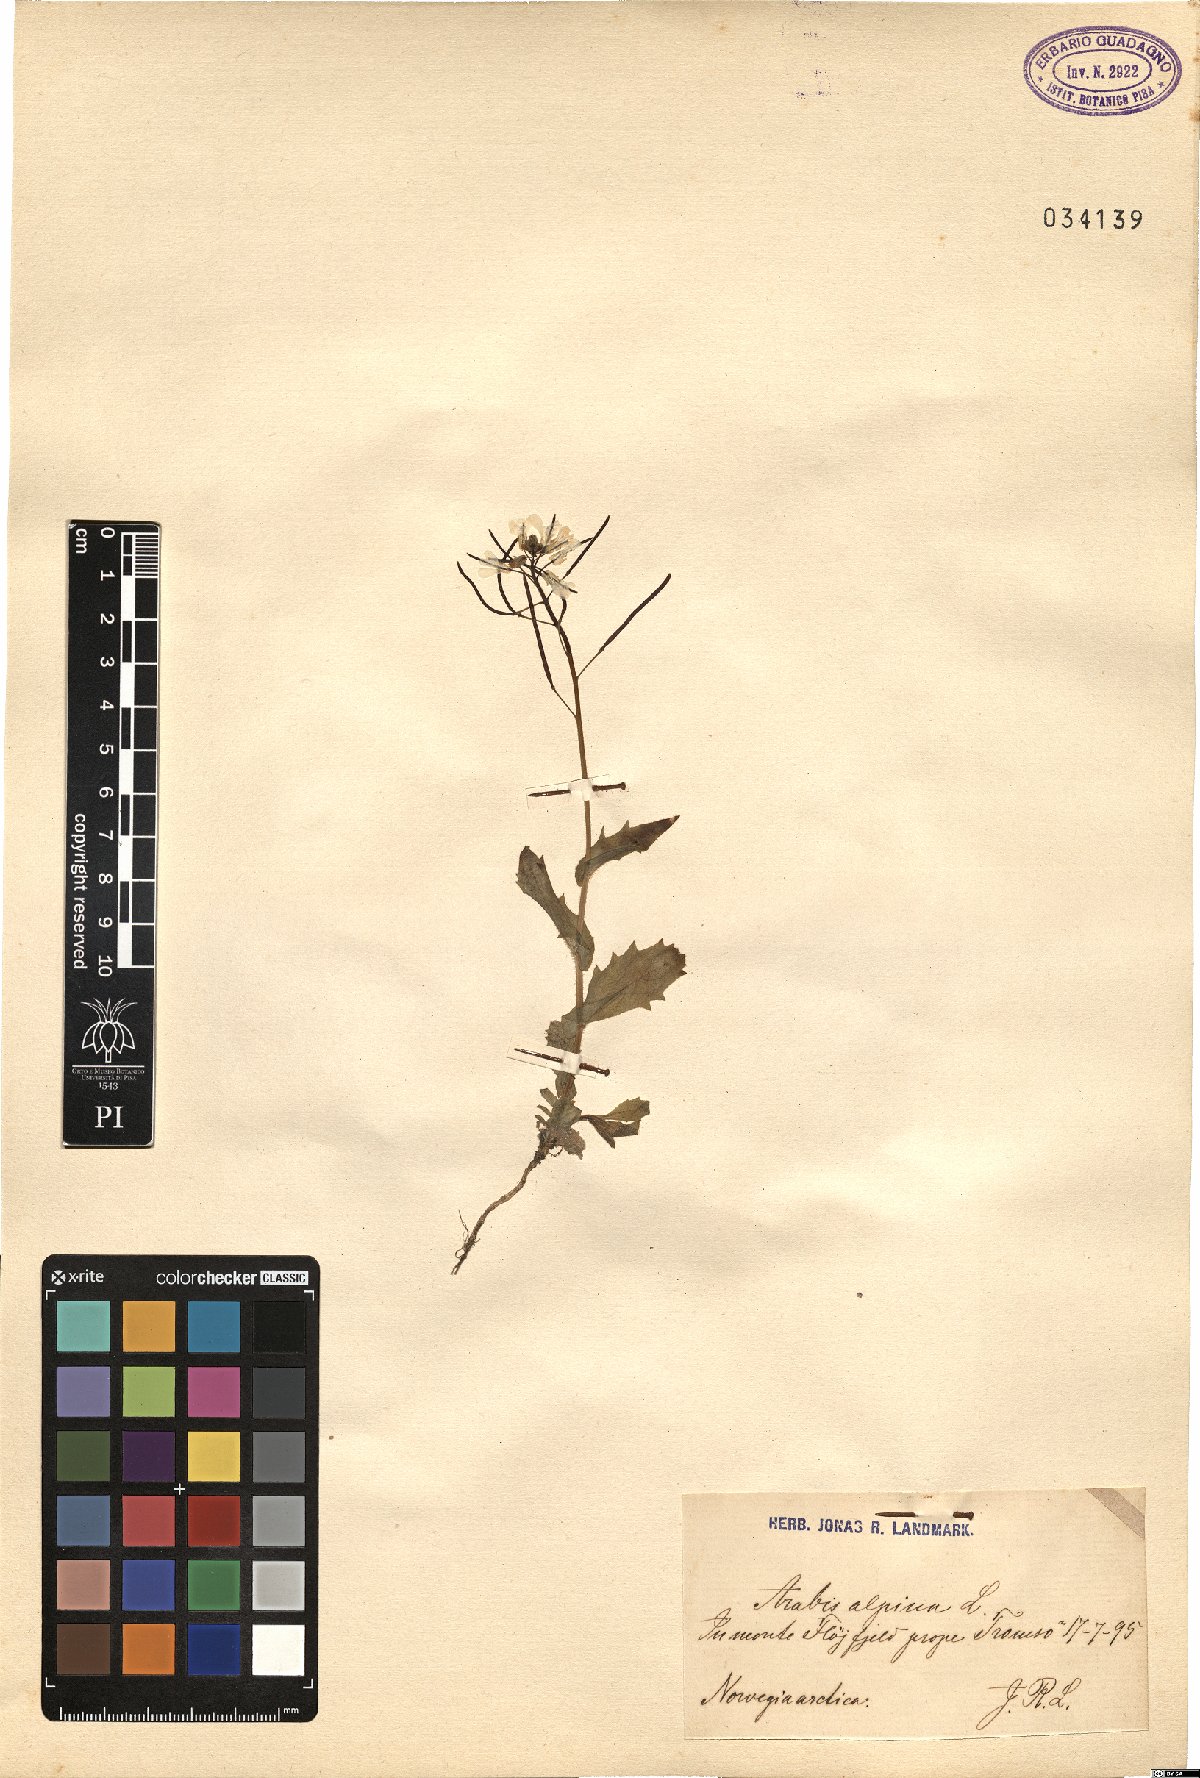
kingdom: Plantae
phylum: Tracheophyta
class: Magnoliopsida
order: Brassicales
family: Brassicaceae
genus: Arabis
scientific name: Arabis alpina
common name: Alpine rock-cress
